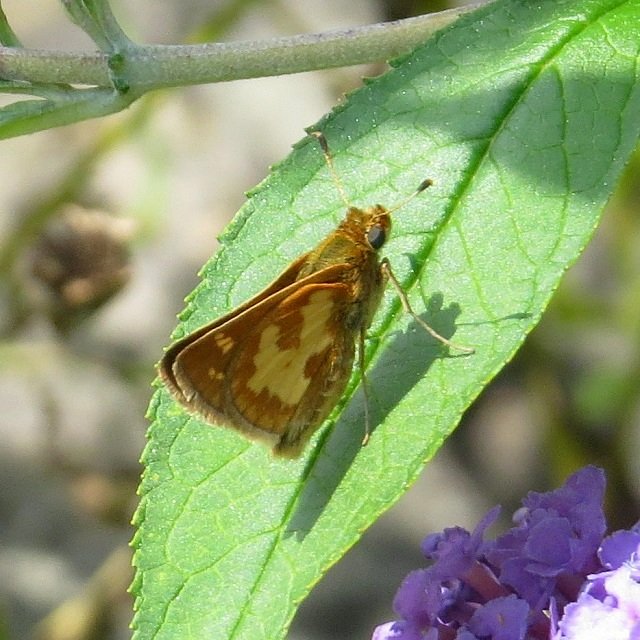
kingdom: Animalia
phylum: Arthropoda
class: Insecta
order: Lepidoptera
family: Hesperiidae
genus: Polites
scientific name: Polites coras
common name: Peck's Skipper
